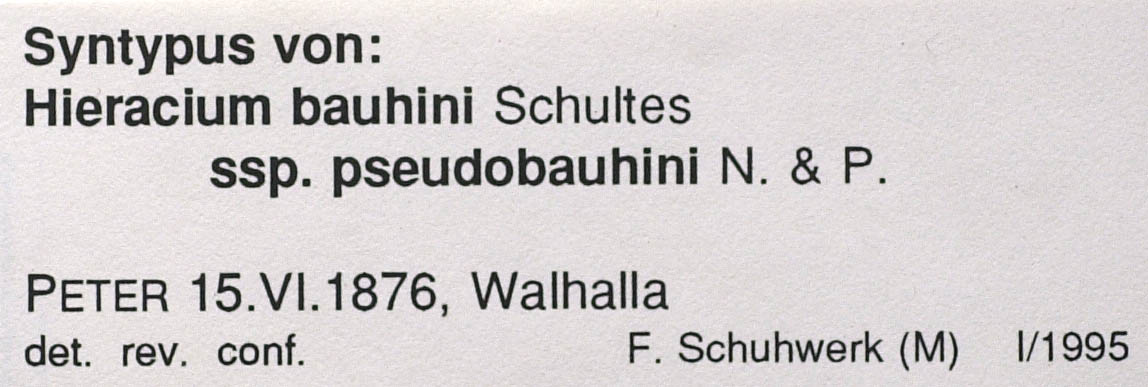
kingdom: Plantae
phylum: Tracheophyta
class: Magnoliopsida
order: Asterales
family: Asteraceae
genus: Pilosella
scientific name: Pilosella bauhini
